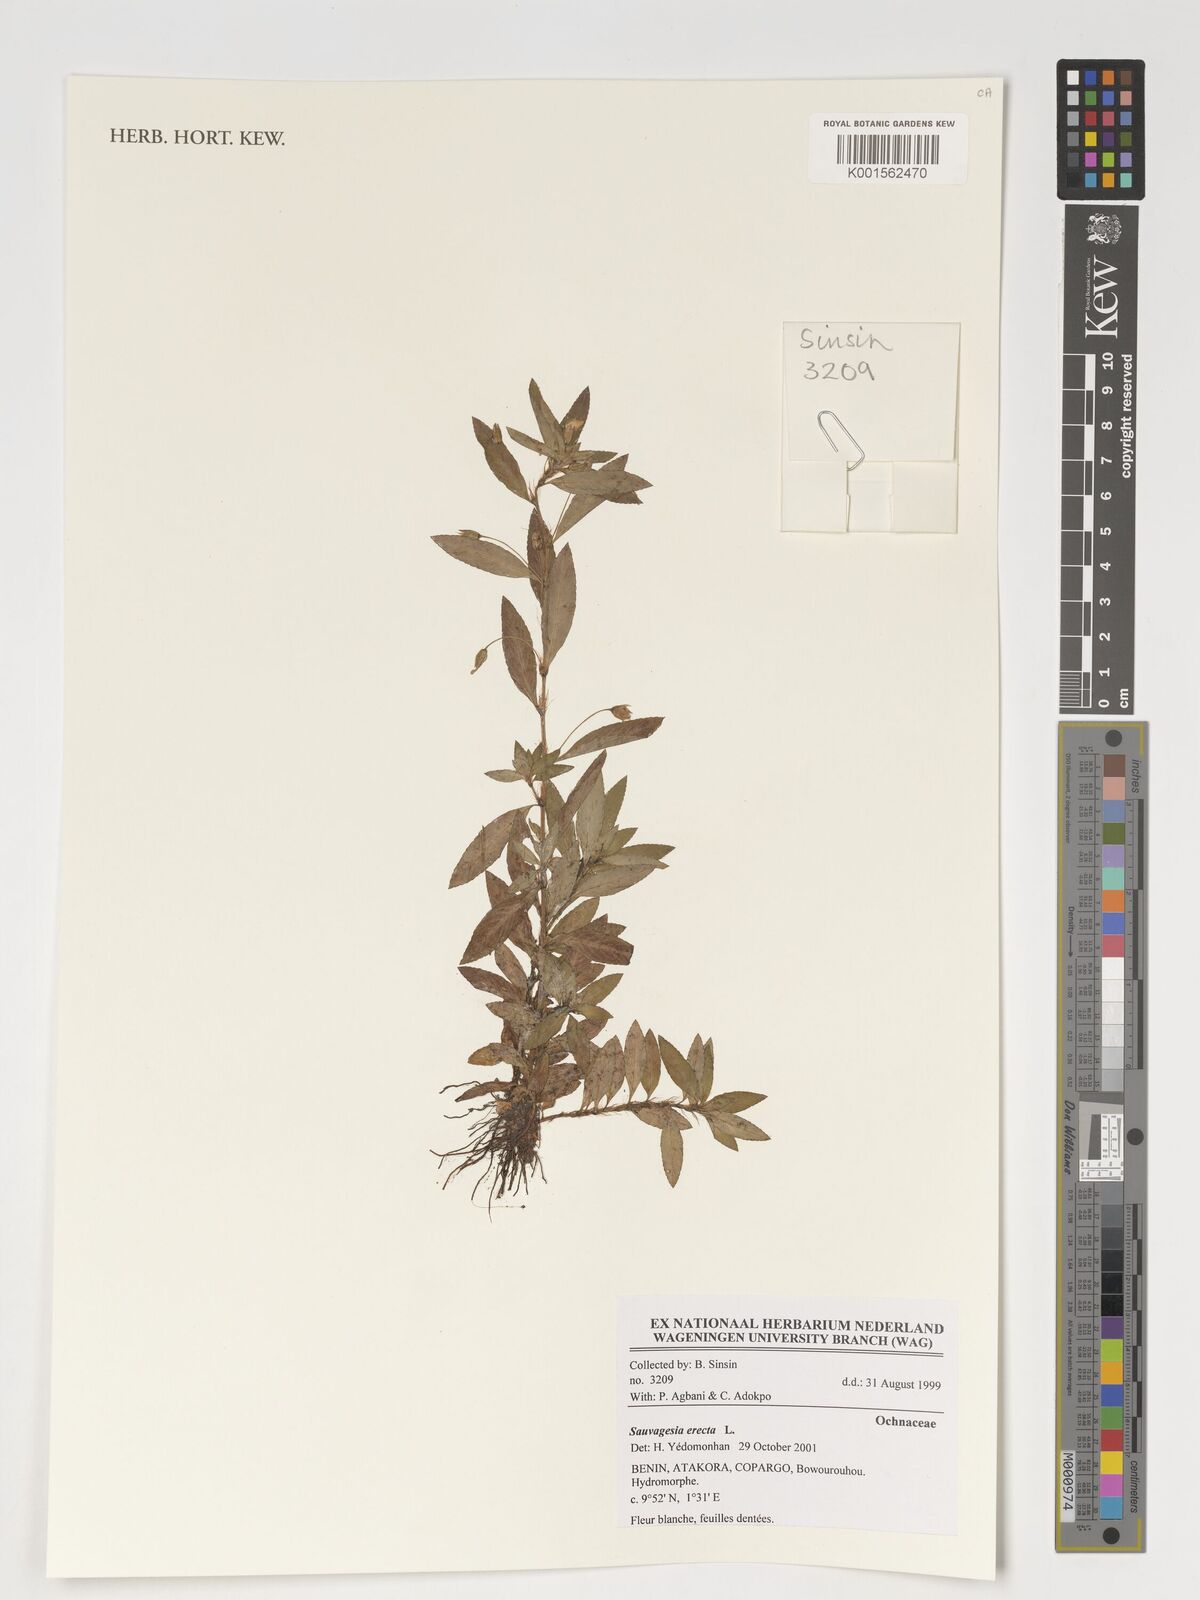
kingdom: Plantae
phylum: Tracheophyta
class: Magnoliopsida
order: Malpighiales
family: Ochnaceae
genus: Sauvagesia
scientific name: Sauvagesia erecta
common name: Creole tea
